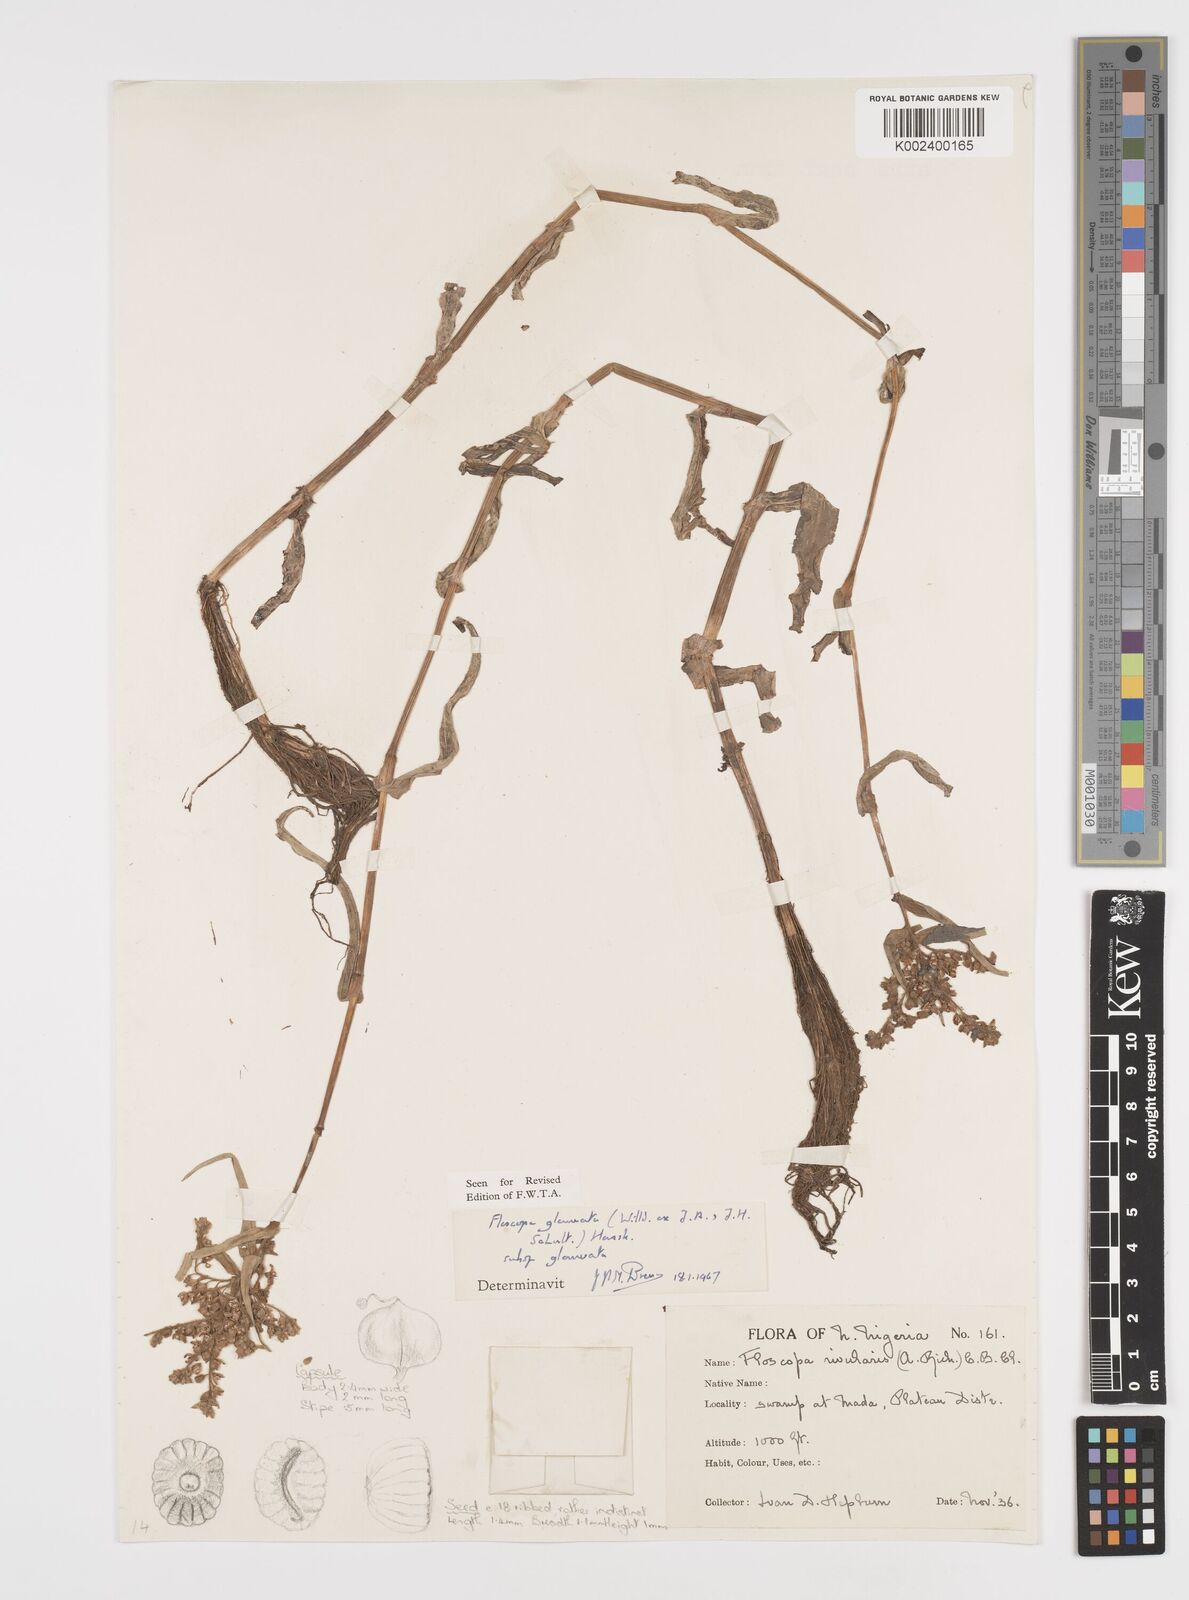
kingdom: Plantae
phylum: Tracheophyta
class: Liliopsida
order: Commelinales
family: Commelinaceae
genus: Floscopa
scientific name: Floscopa glomerata
